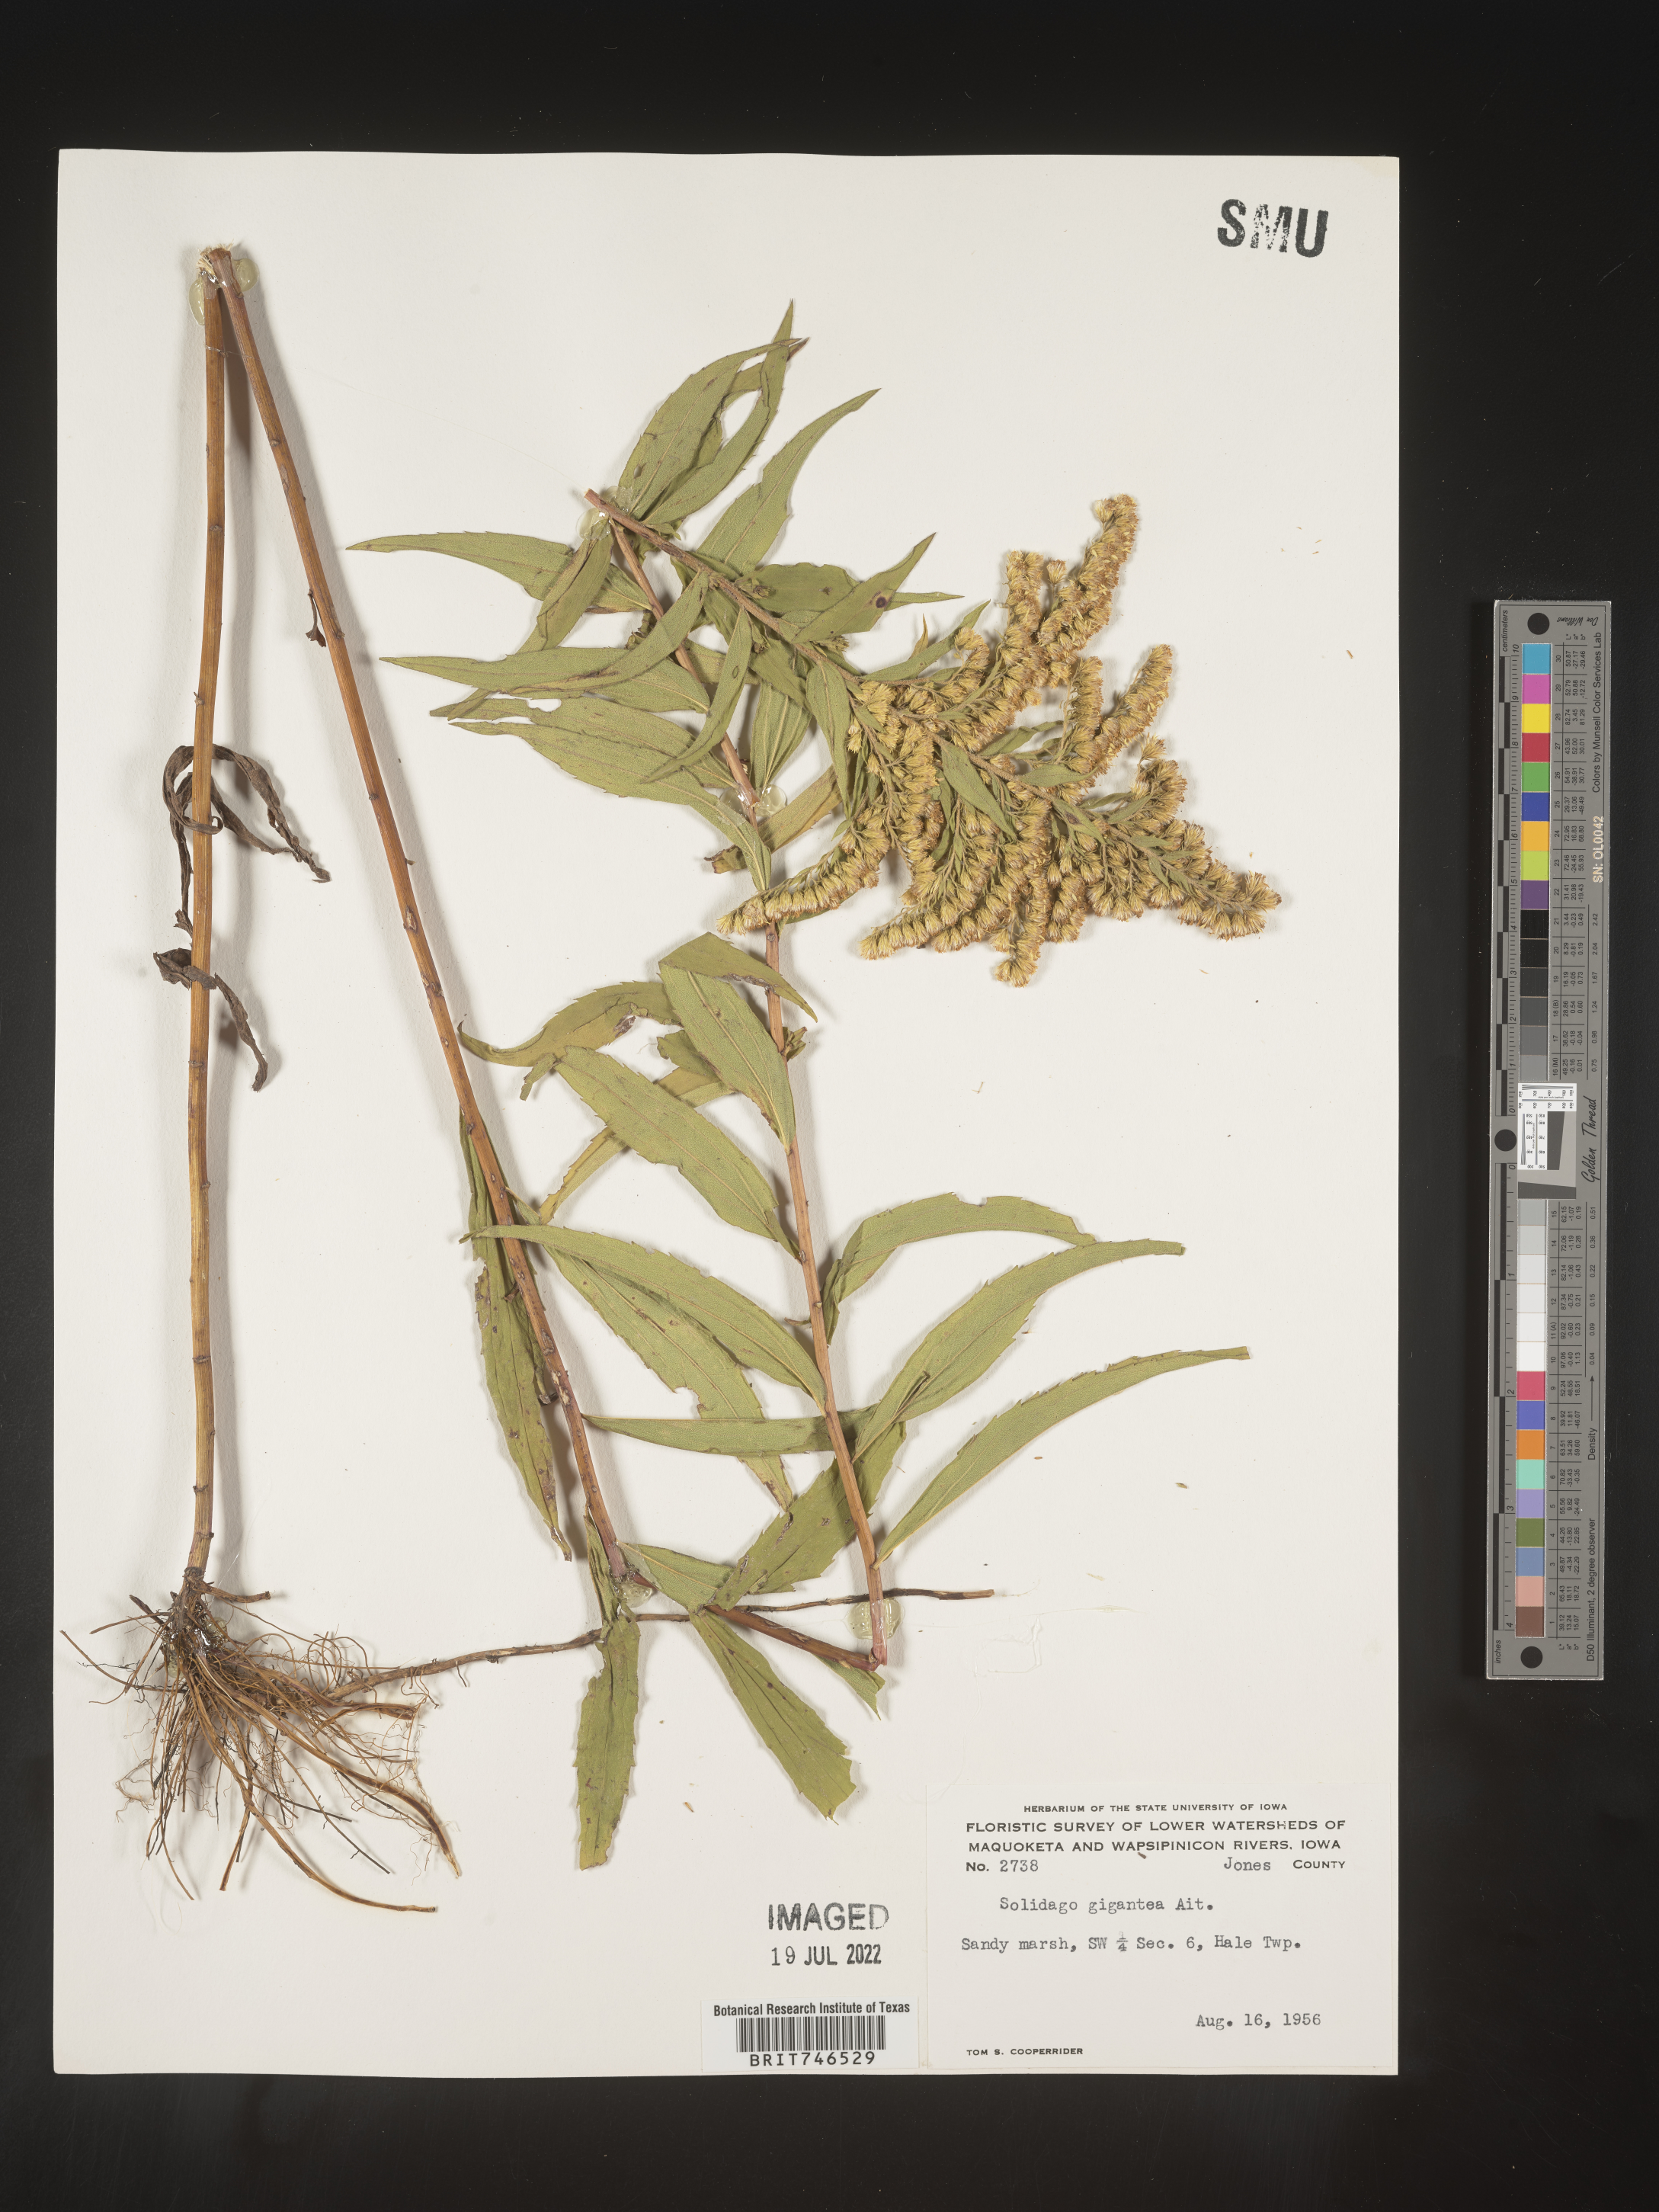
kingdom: Plantae
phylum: Tracheophyta
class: Magnoliopsida
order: Asterales
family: Asteraceae
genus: Solidago
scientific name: Solidago gigantea
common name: Giant goldenrod
